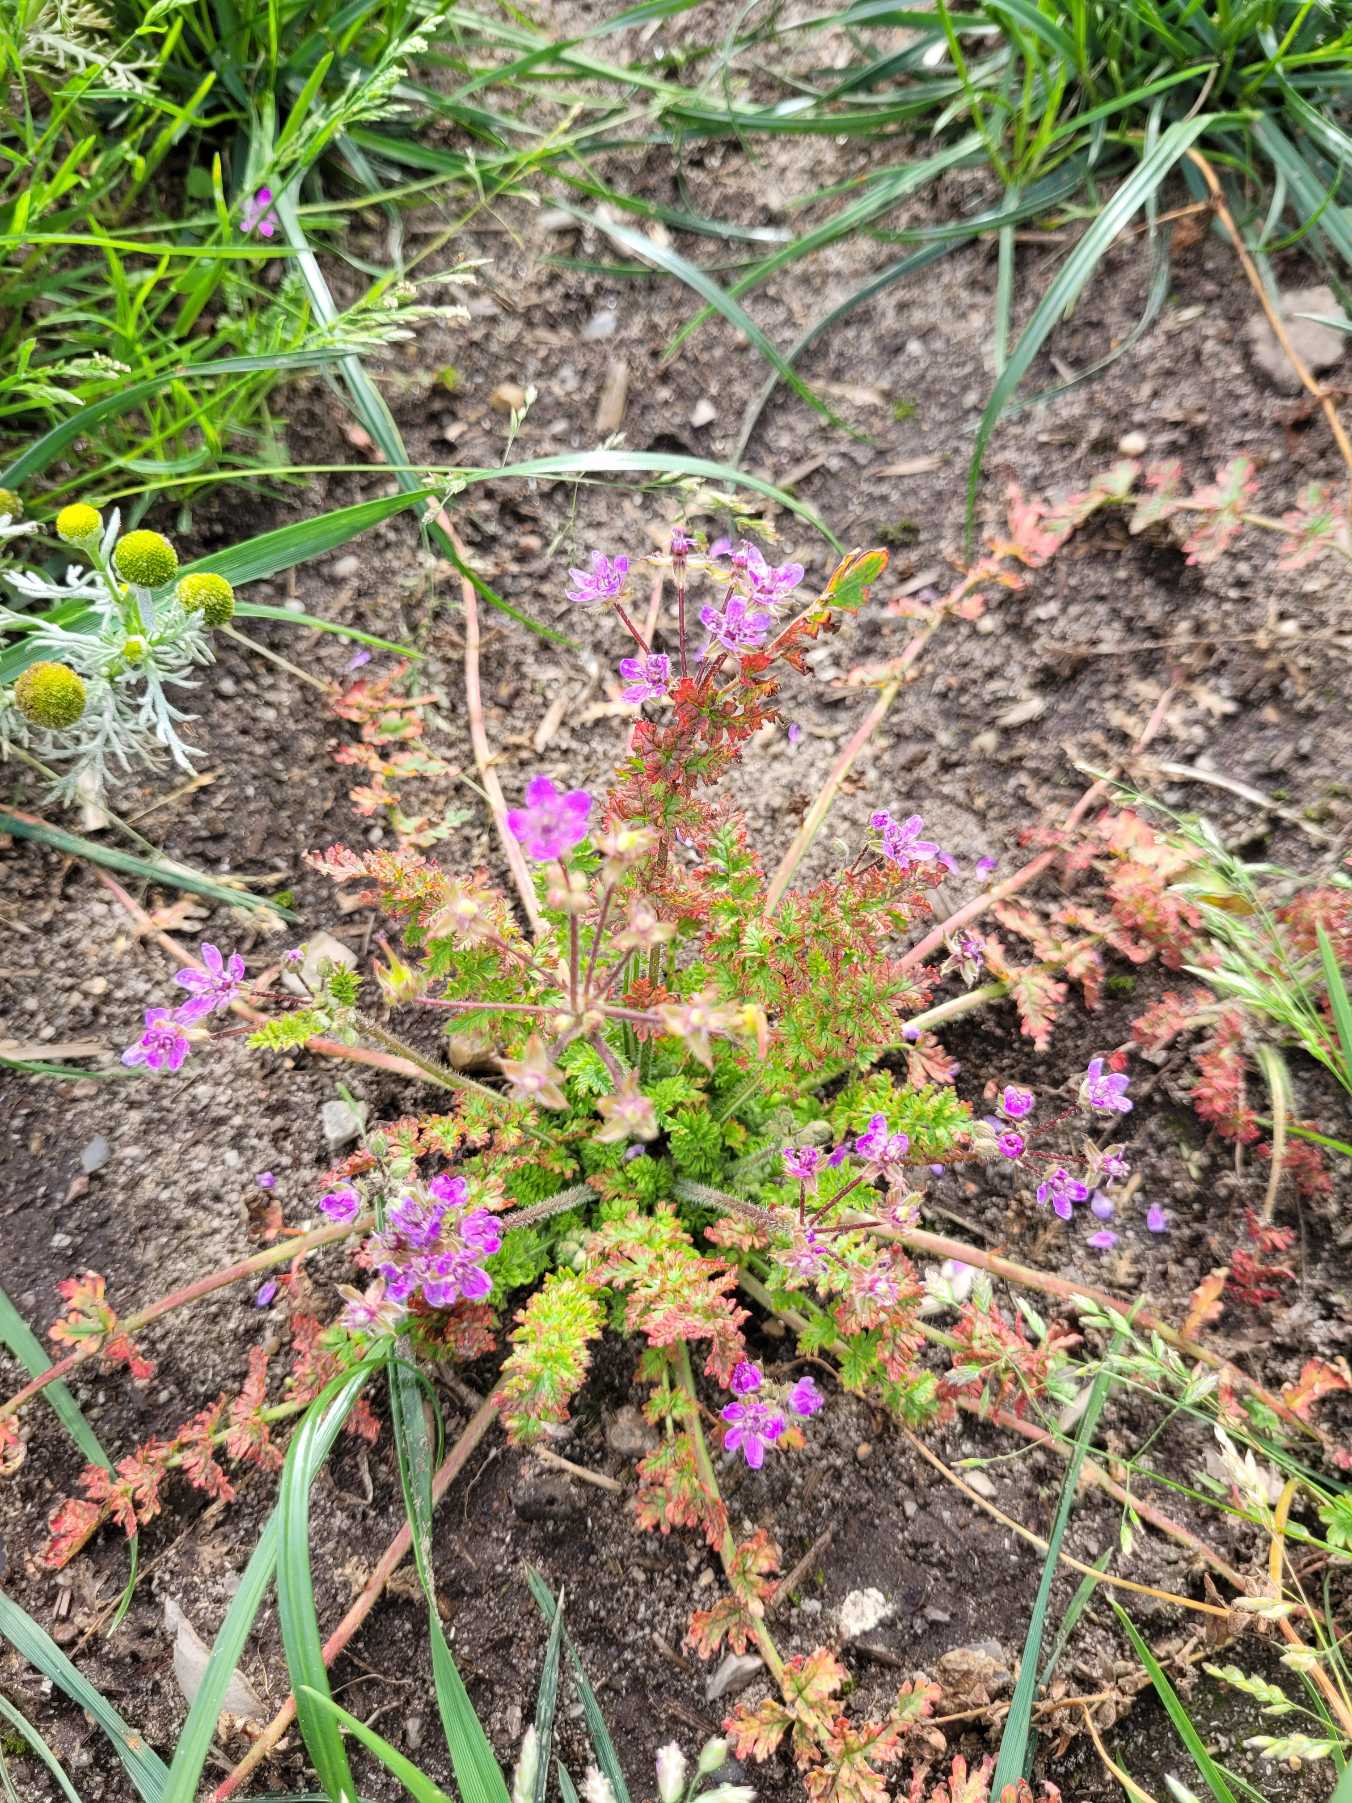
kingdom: Plantae
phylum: Tracheophyta
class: Magnoliopsida
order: Geraniales
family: Geraniaceae
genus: Erodium
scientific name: Erodium cicutarium
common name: Hejrenæb
